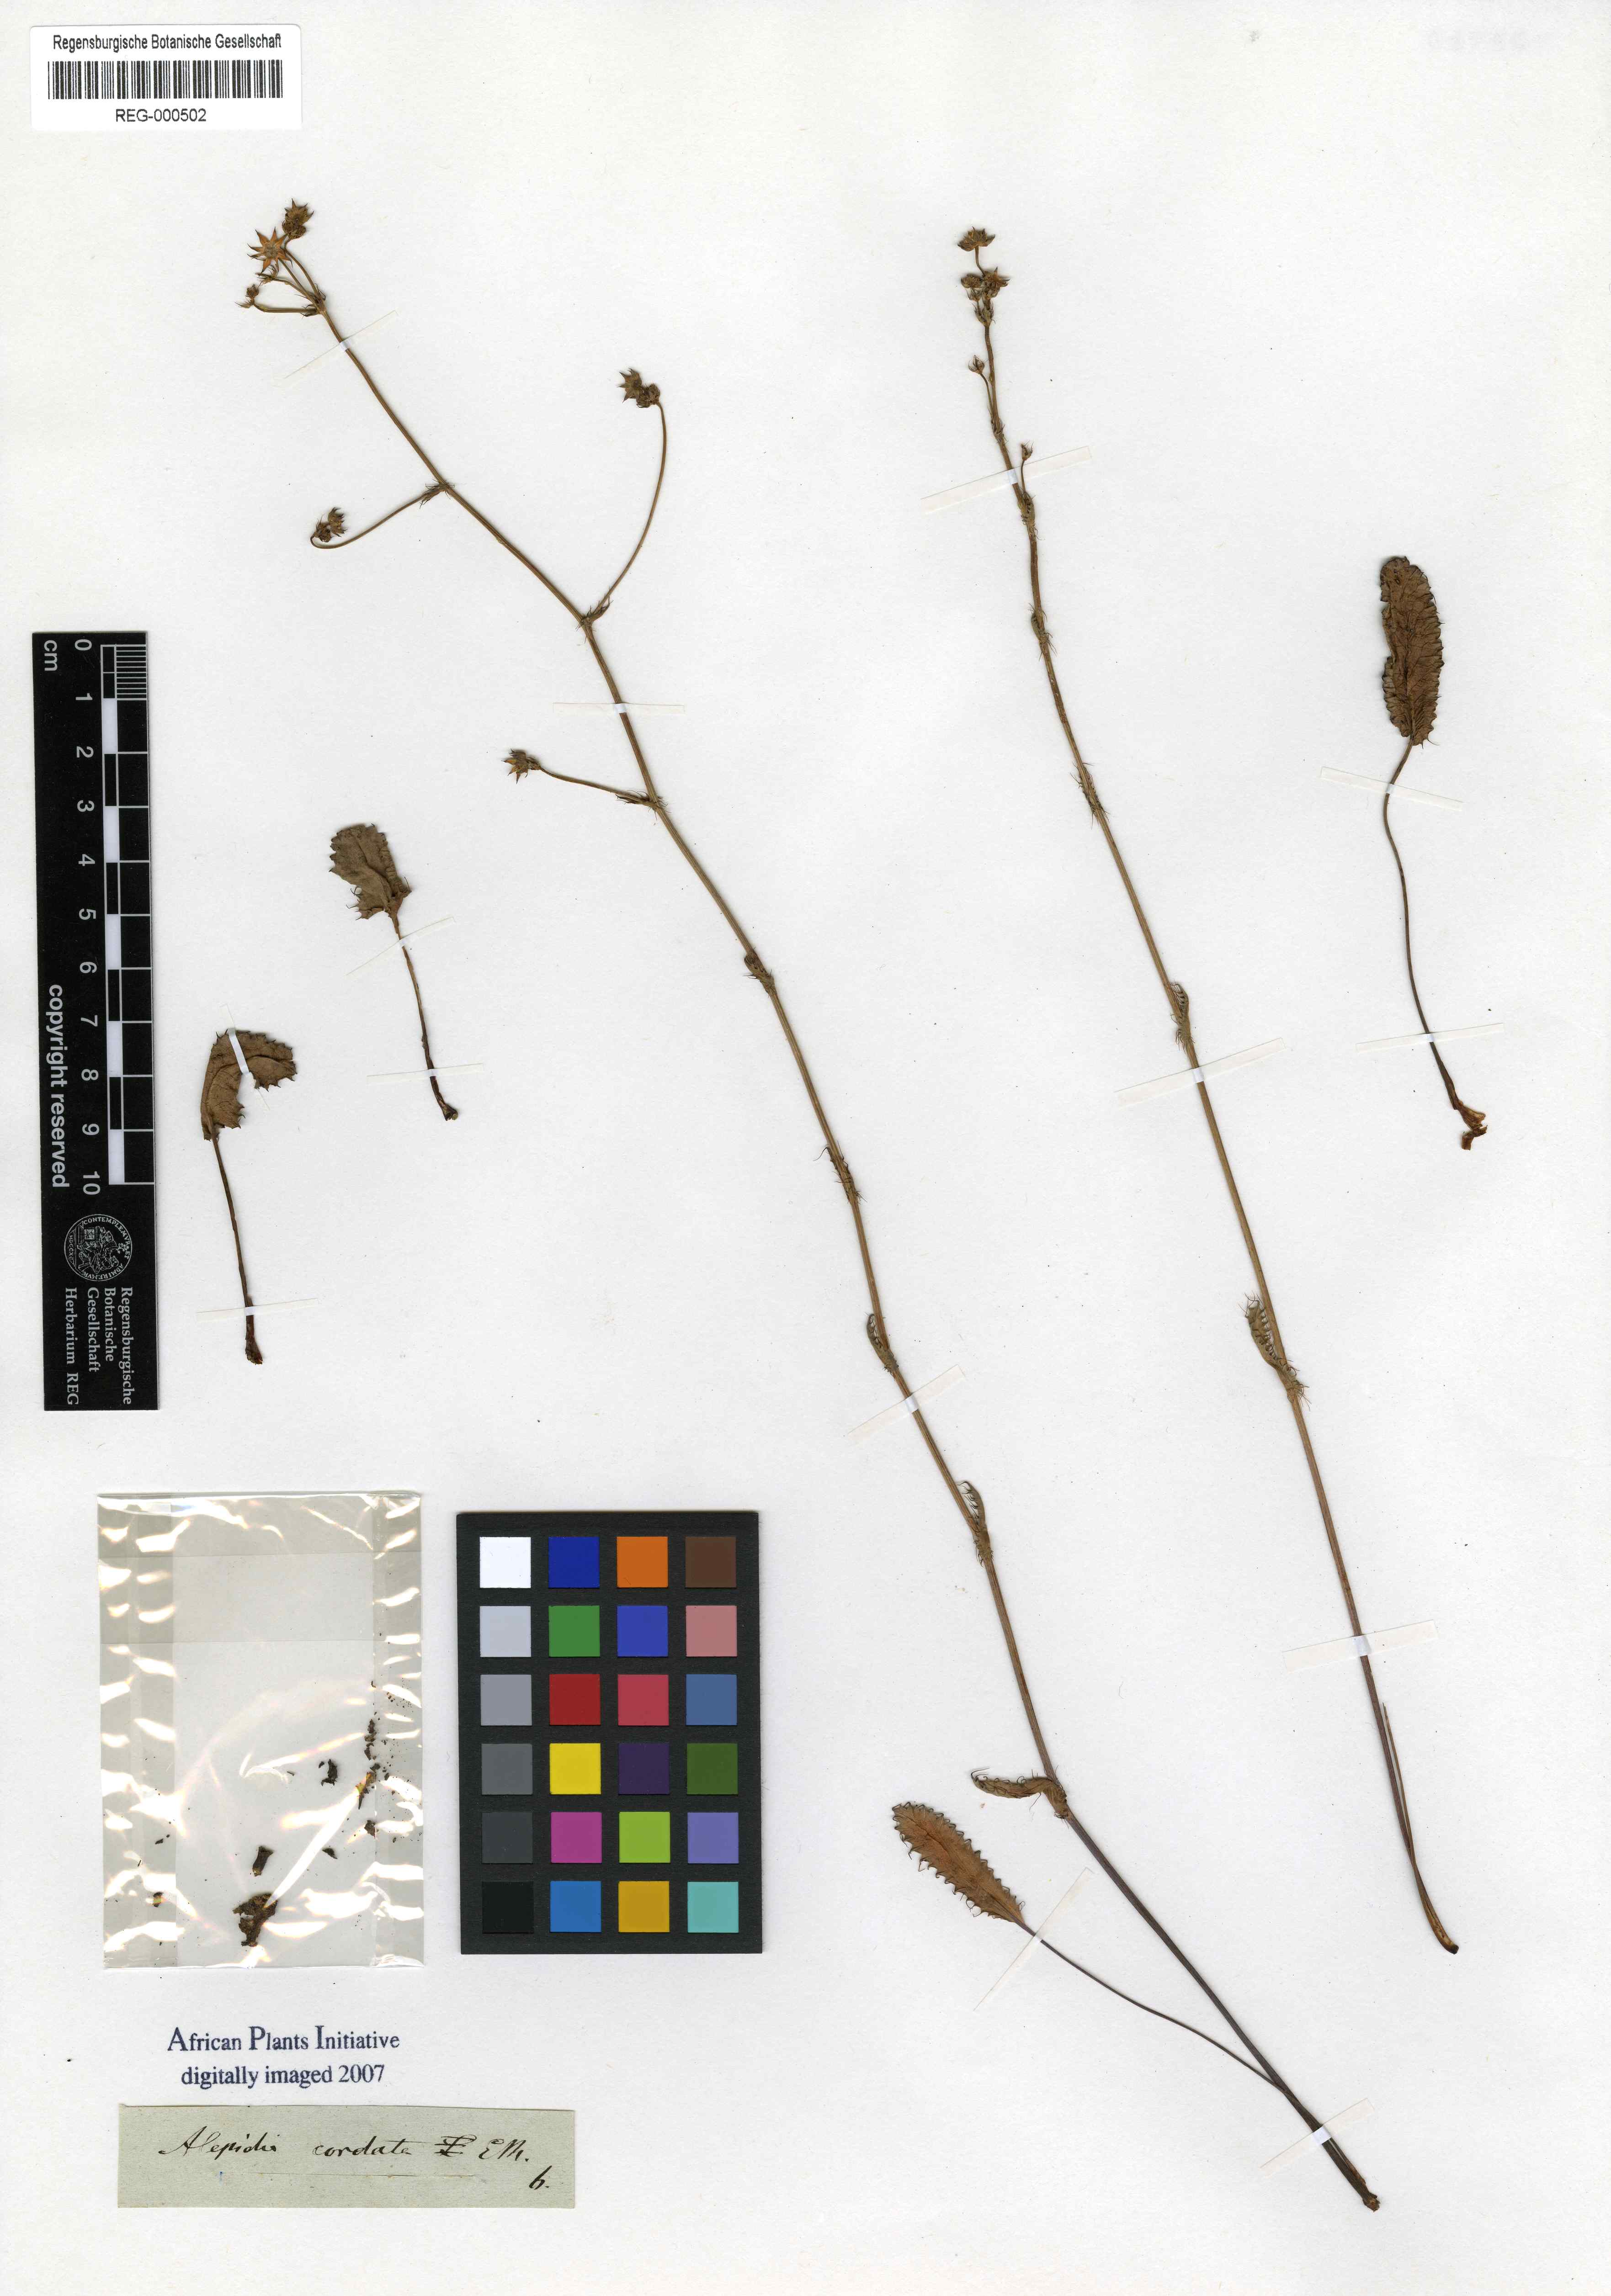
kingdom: Plantae
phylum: Tracheophyta
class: Magnoliopsida
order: Apiales
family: Apiaceae
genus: Alepidea
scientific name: Alepidea capensis
